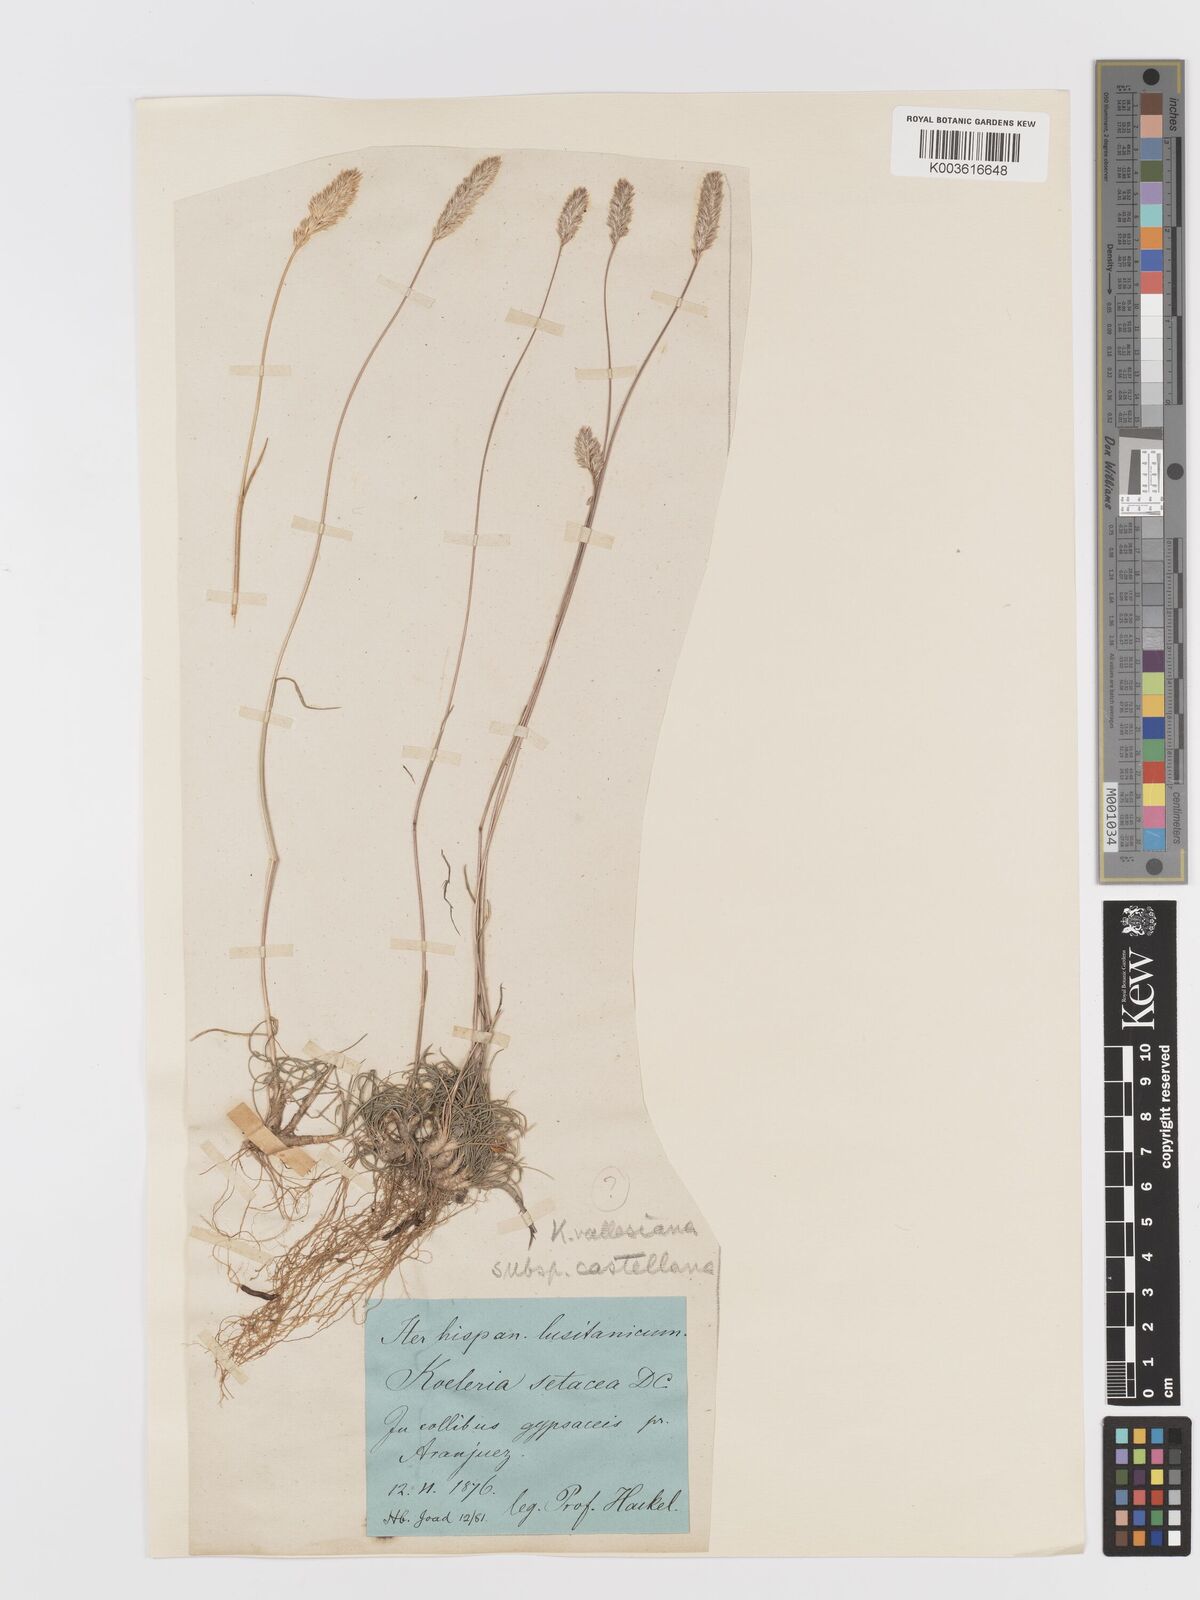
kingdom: Plantae
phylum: Tracheophyta
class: Liliopsida
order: Poales
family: Poaceae
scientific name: Poaceae
